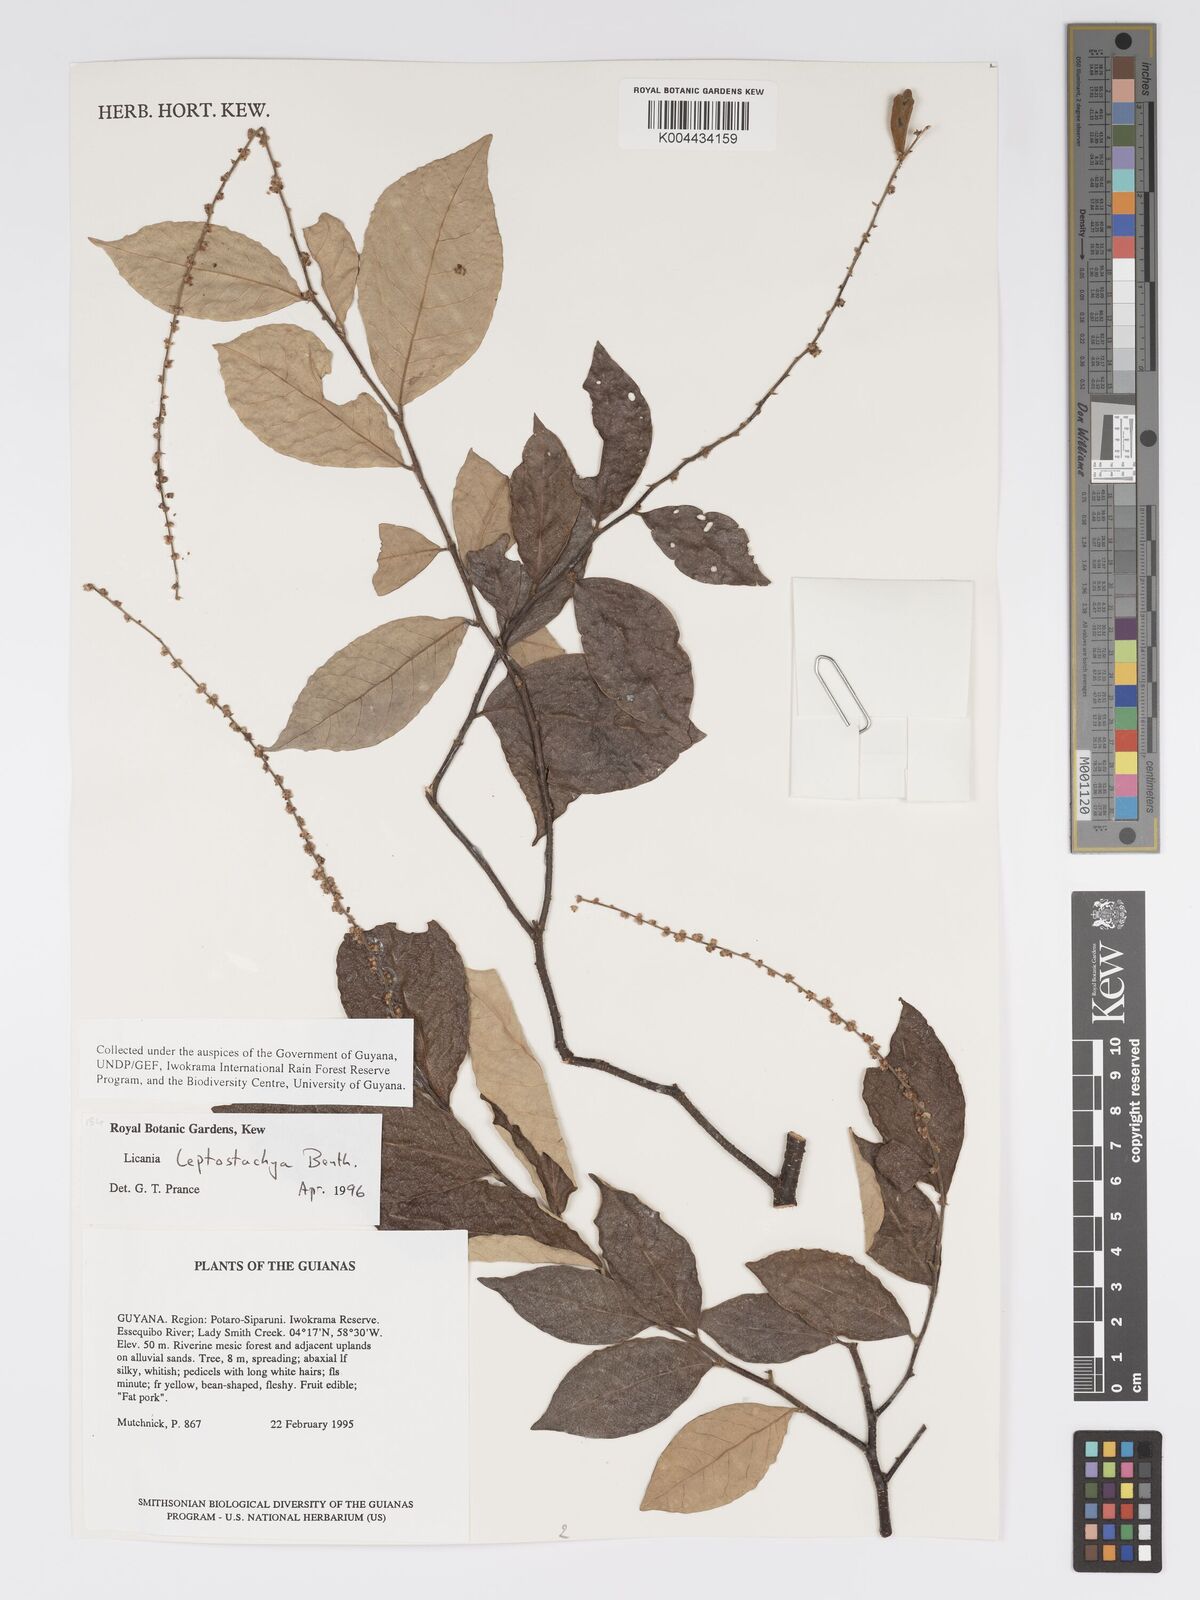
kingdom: Plantae
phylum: Tracheophyta
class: Magnoliopsida
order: Malpighiales
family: Chrysobalanaceae
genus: Licania
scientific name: Licania leptostachya
